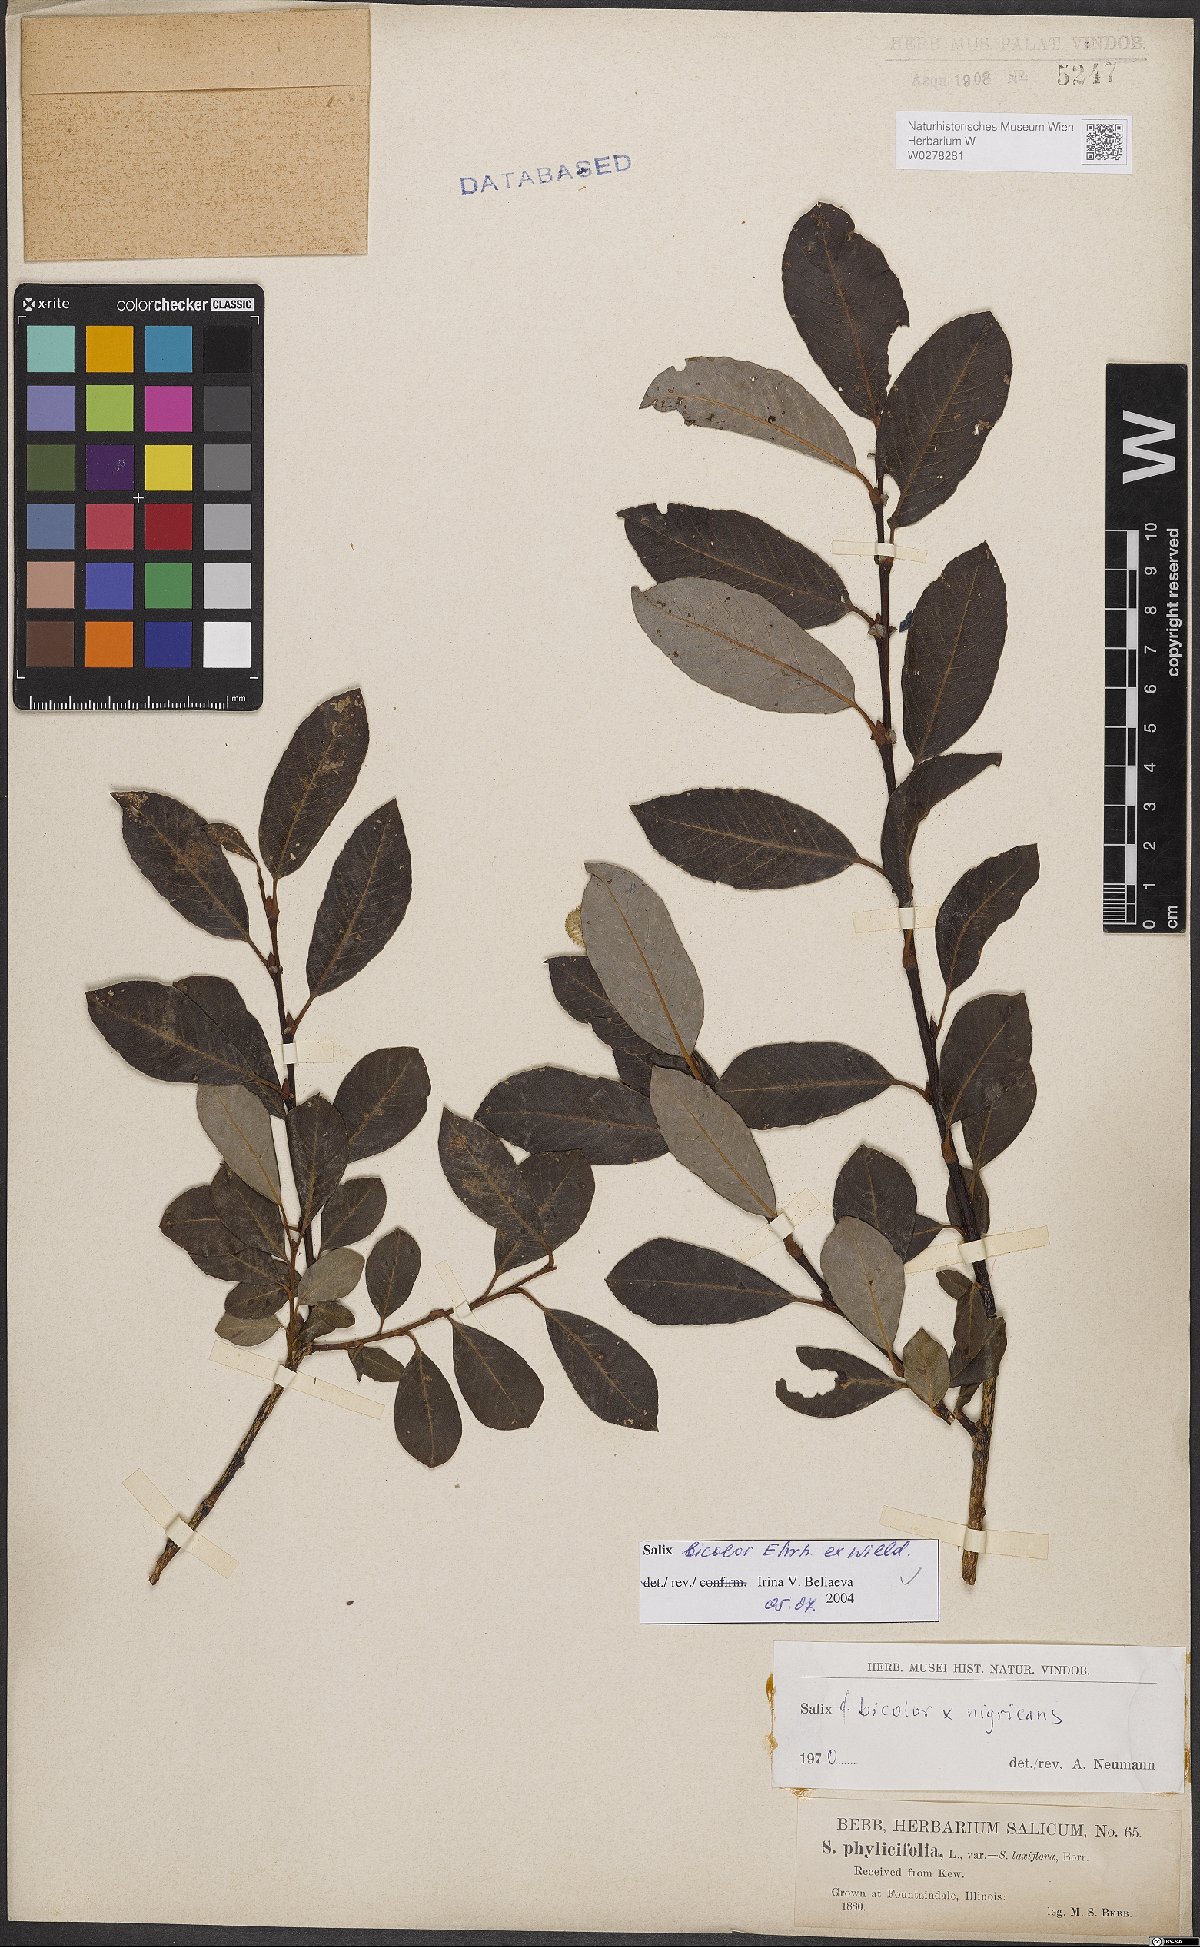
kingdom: Plantae
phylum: Tracheophyta
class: Magnoliopsida
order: Malpighiales
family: Salicaceae
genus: Salix
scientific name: Salix bicolor
